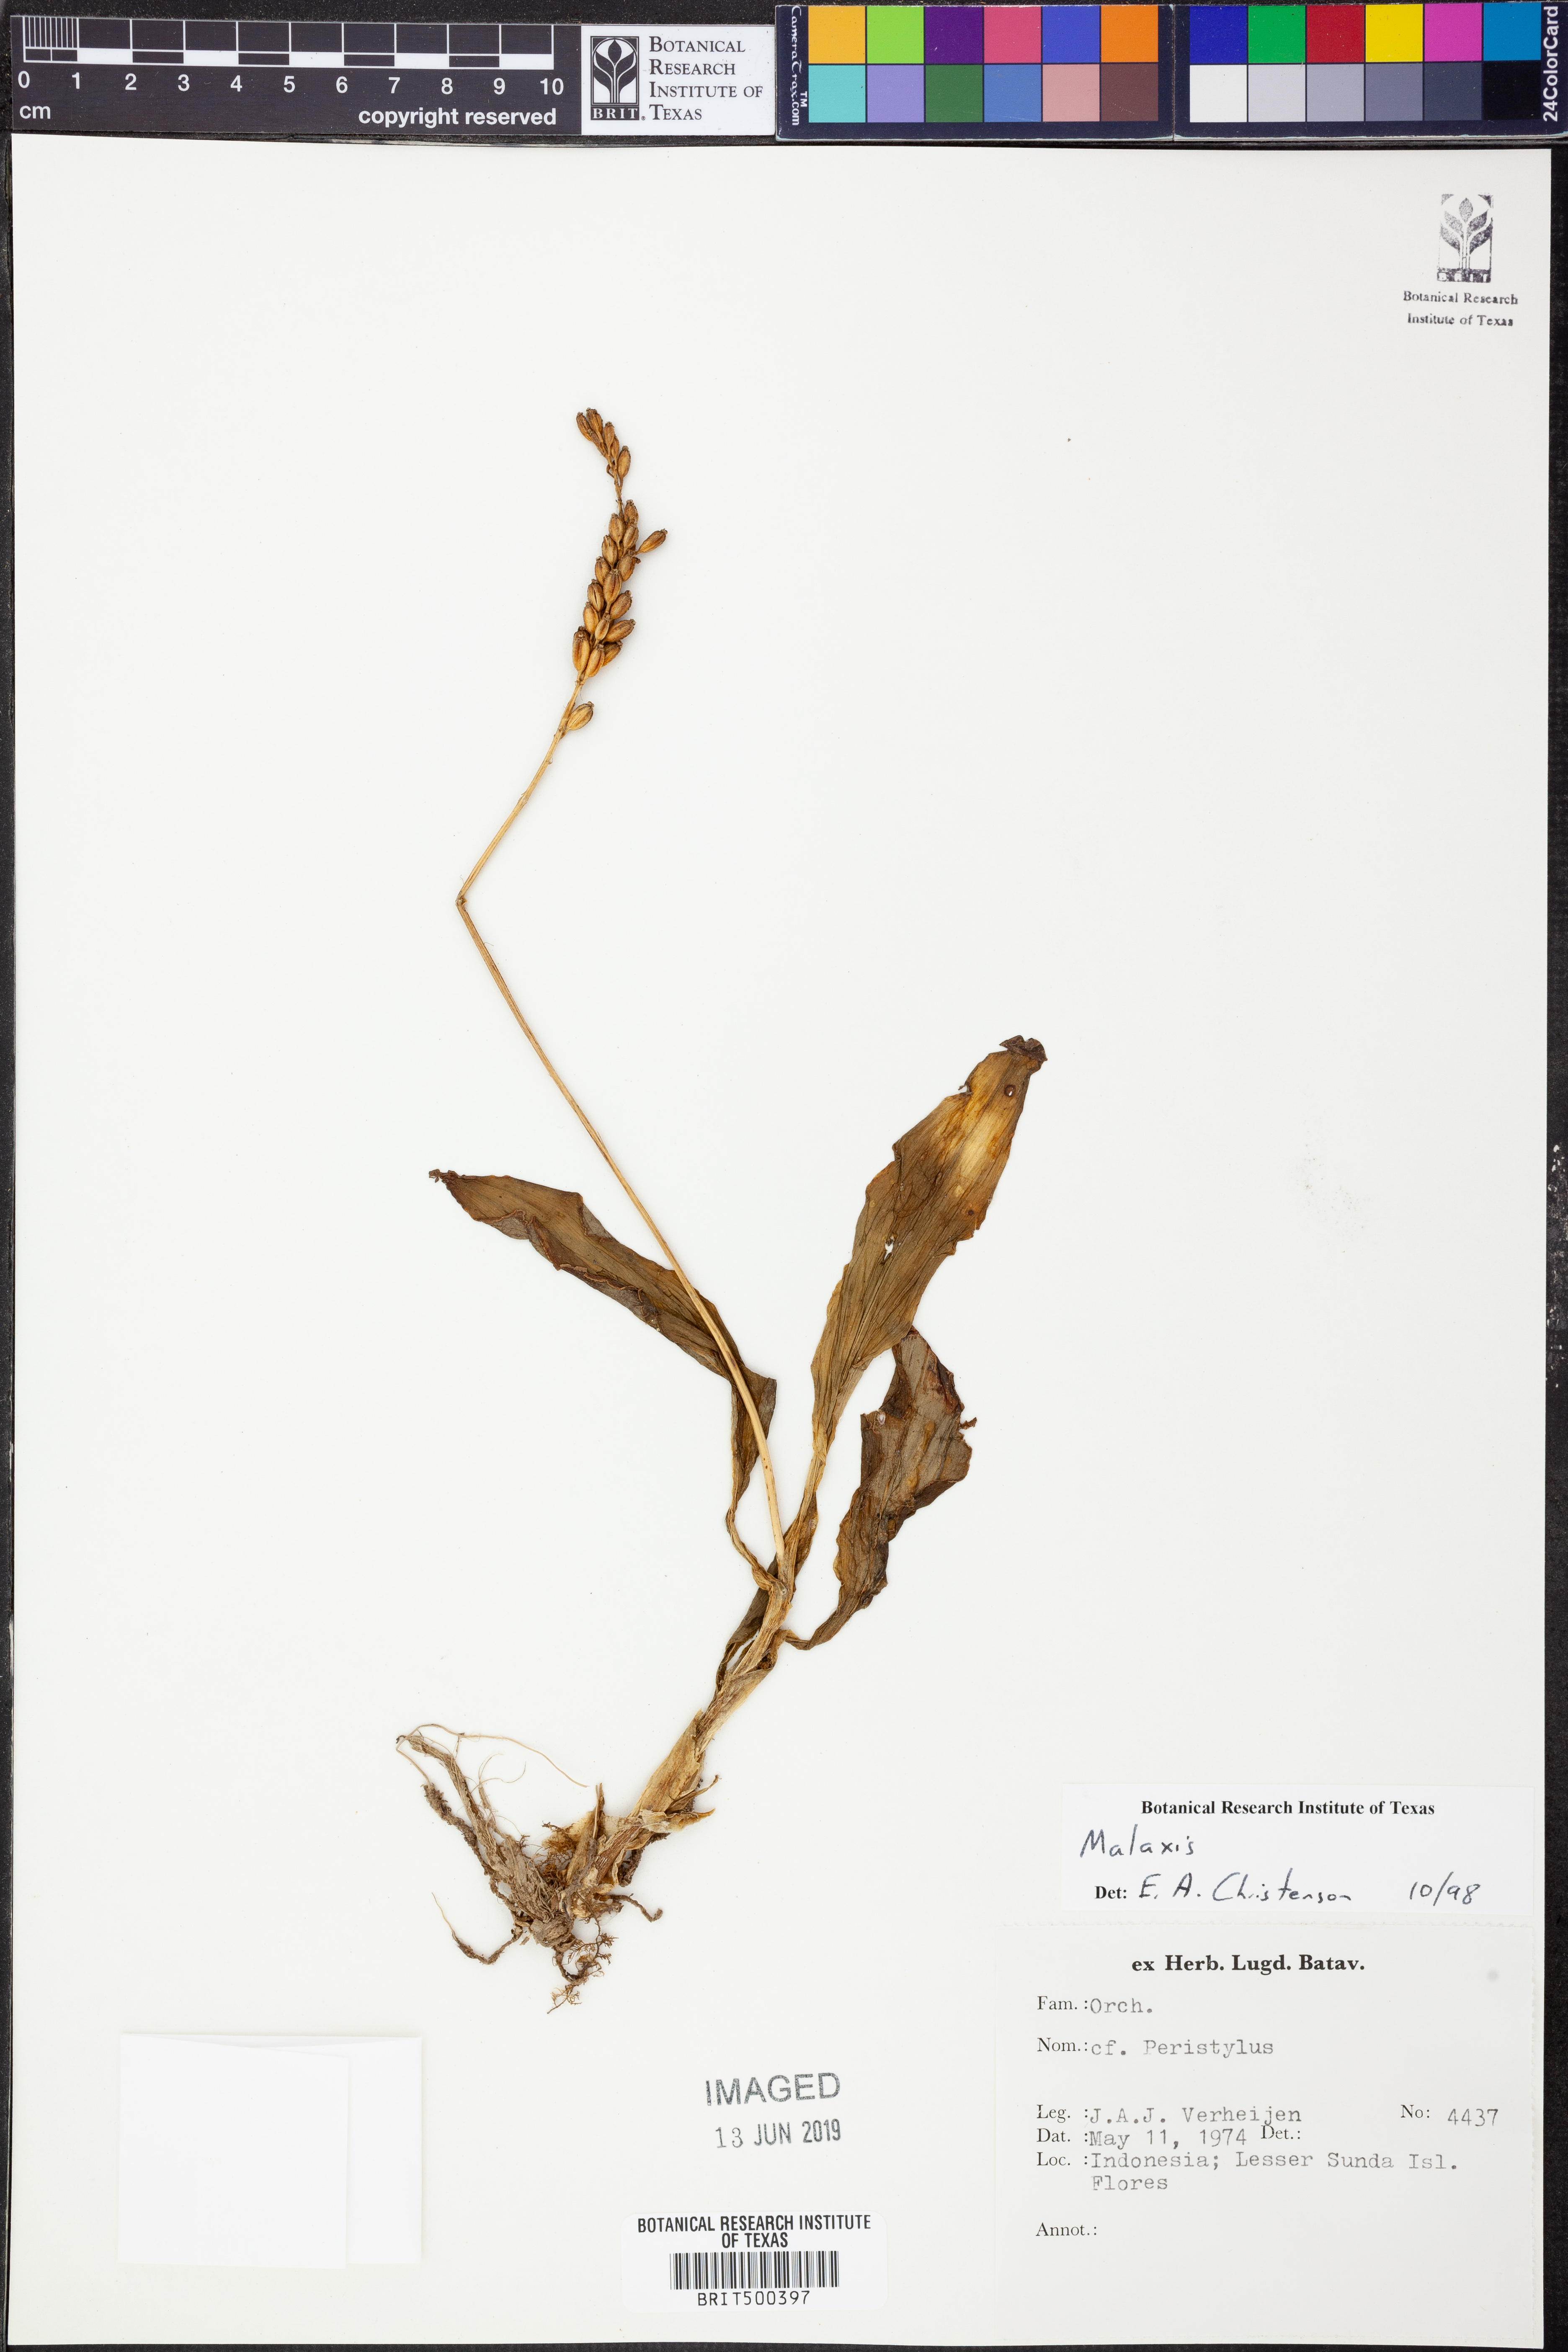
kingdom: Plantae
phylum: Tracheophyta
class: Liliopsida
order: Asparagales
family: Orchidaceae
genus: Malaxis
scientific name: Malaxis
